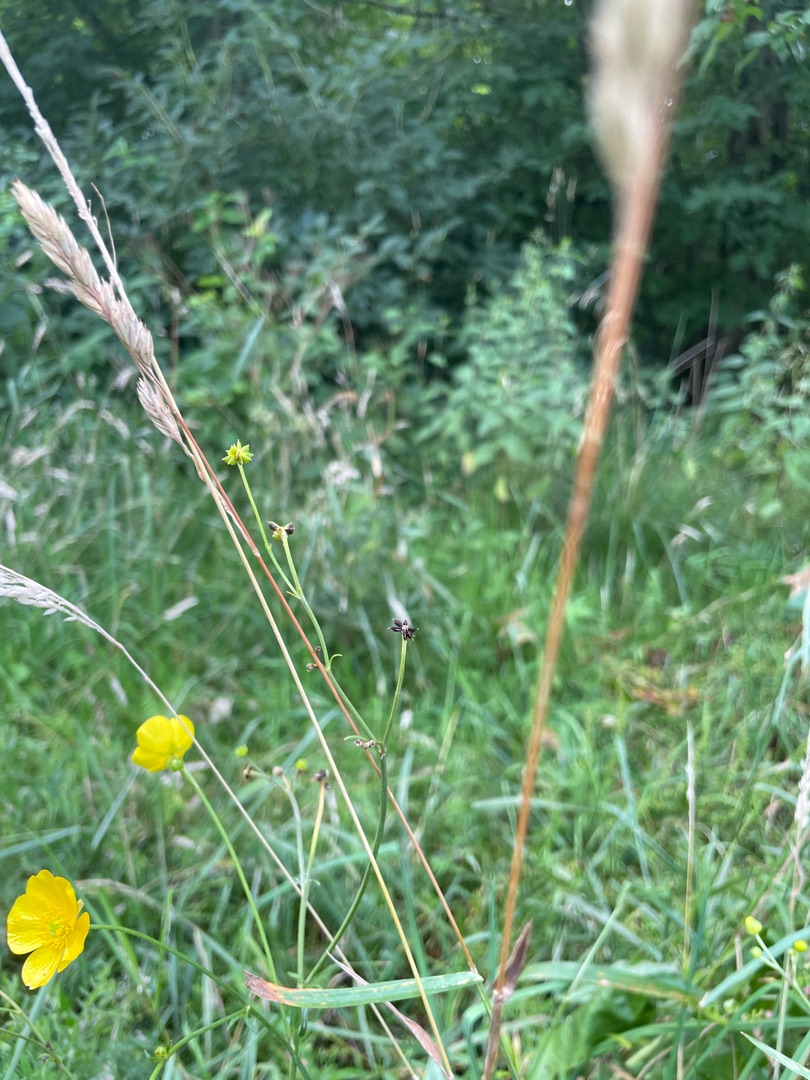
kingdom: Plantae
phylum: Tracheophyta
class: Magnoliopsida
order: Ranunculales
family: Ranunculaceae
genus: Ranunculus
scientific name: Ranunculus acris
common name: Bidende ranunkel
